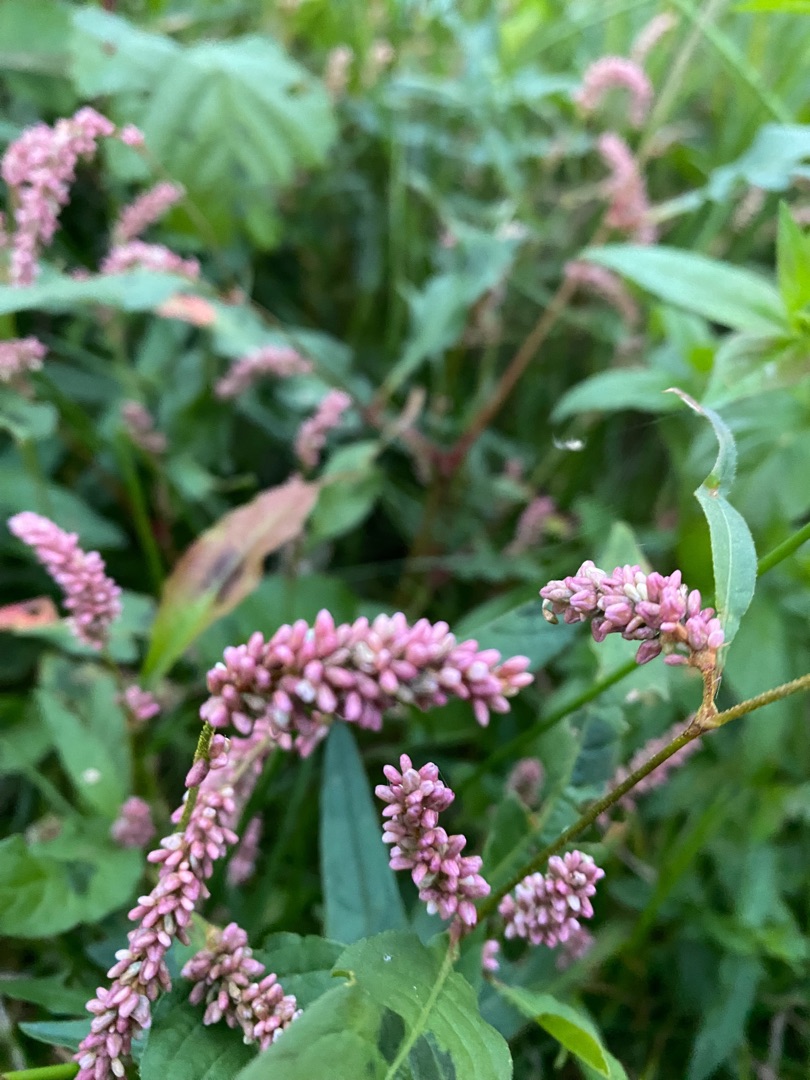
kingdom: Plantae
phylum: Tracheophyta
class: Magnoliopsida
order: Caryophyllales
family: Polygonaceae
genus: Persicaria
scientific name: Persicaria maculosa
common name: Fersken-pileurt
